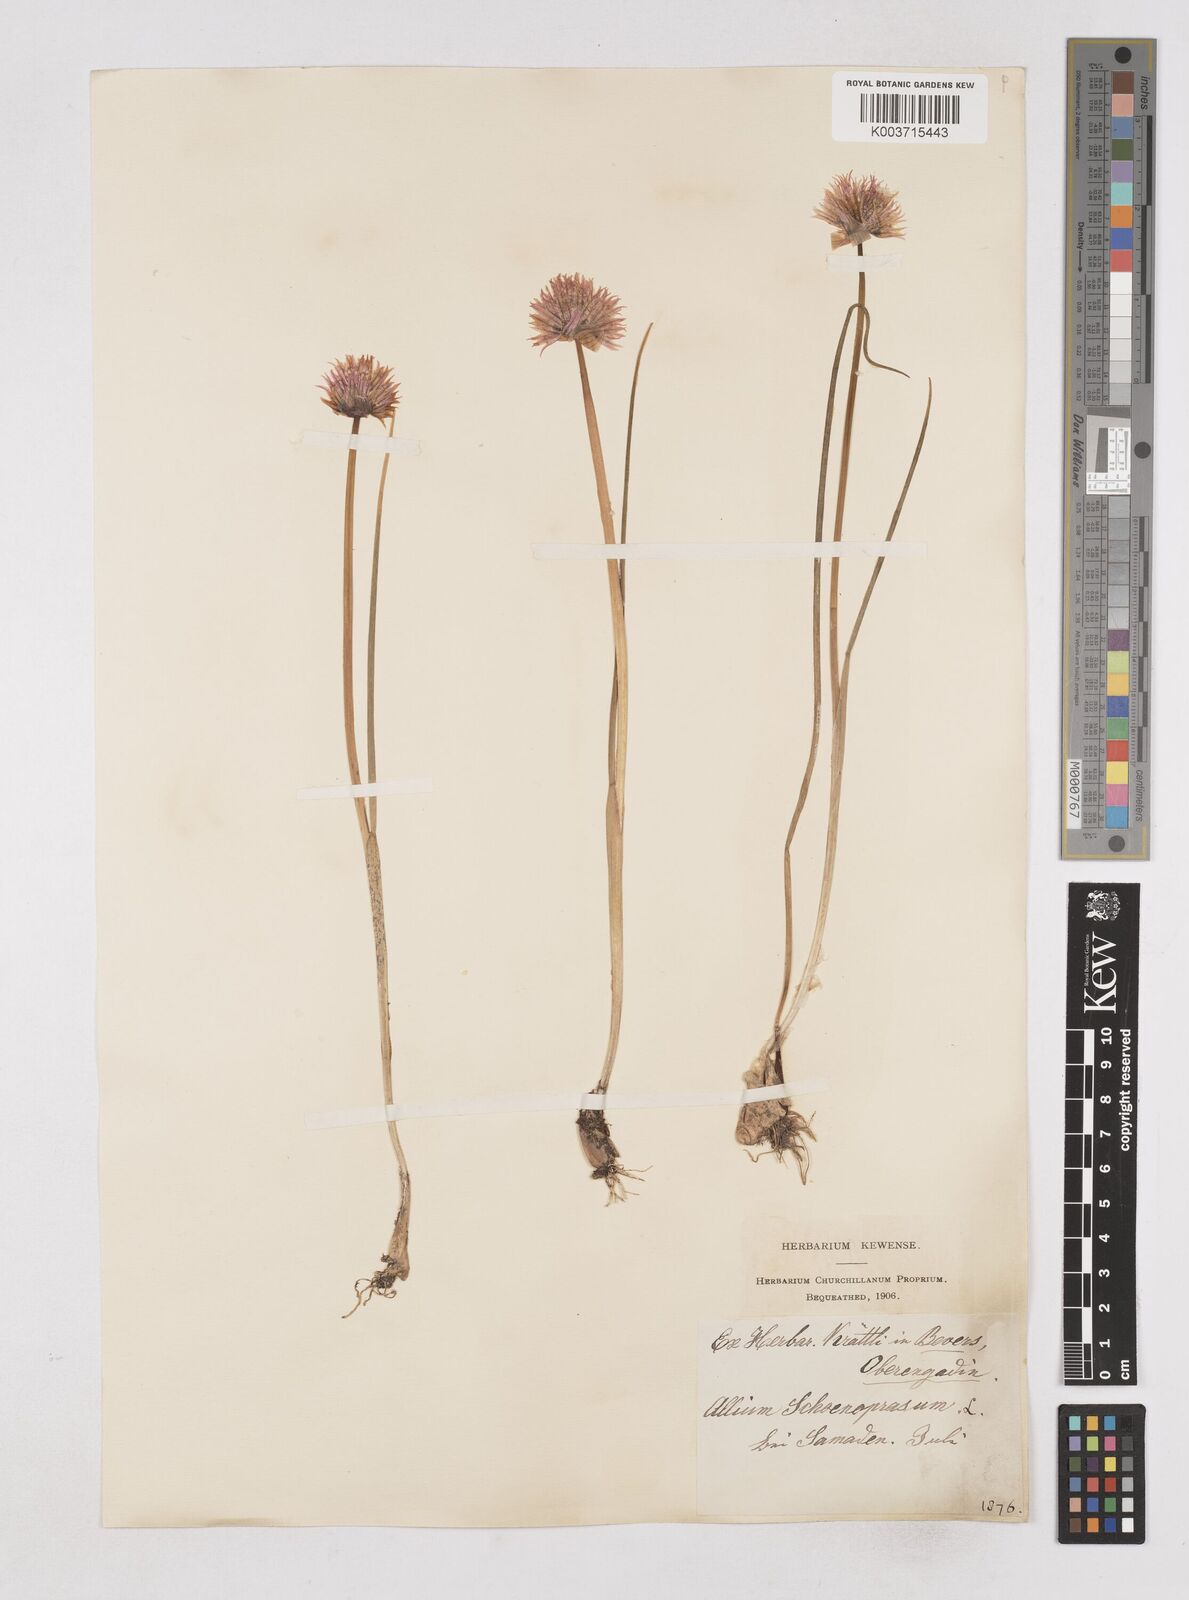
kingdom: Plantae
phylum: Tracheophyta
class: Liliopsida
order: Asparagales
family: Amaryllidaceae
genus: Allium
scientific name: Allium schoenoprasum
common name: Chives
